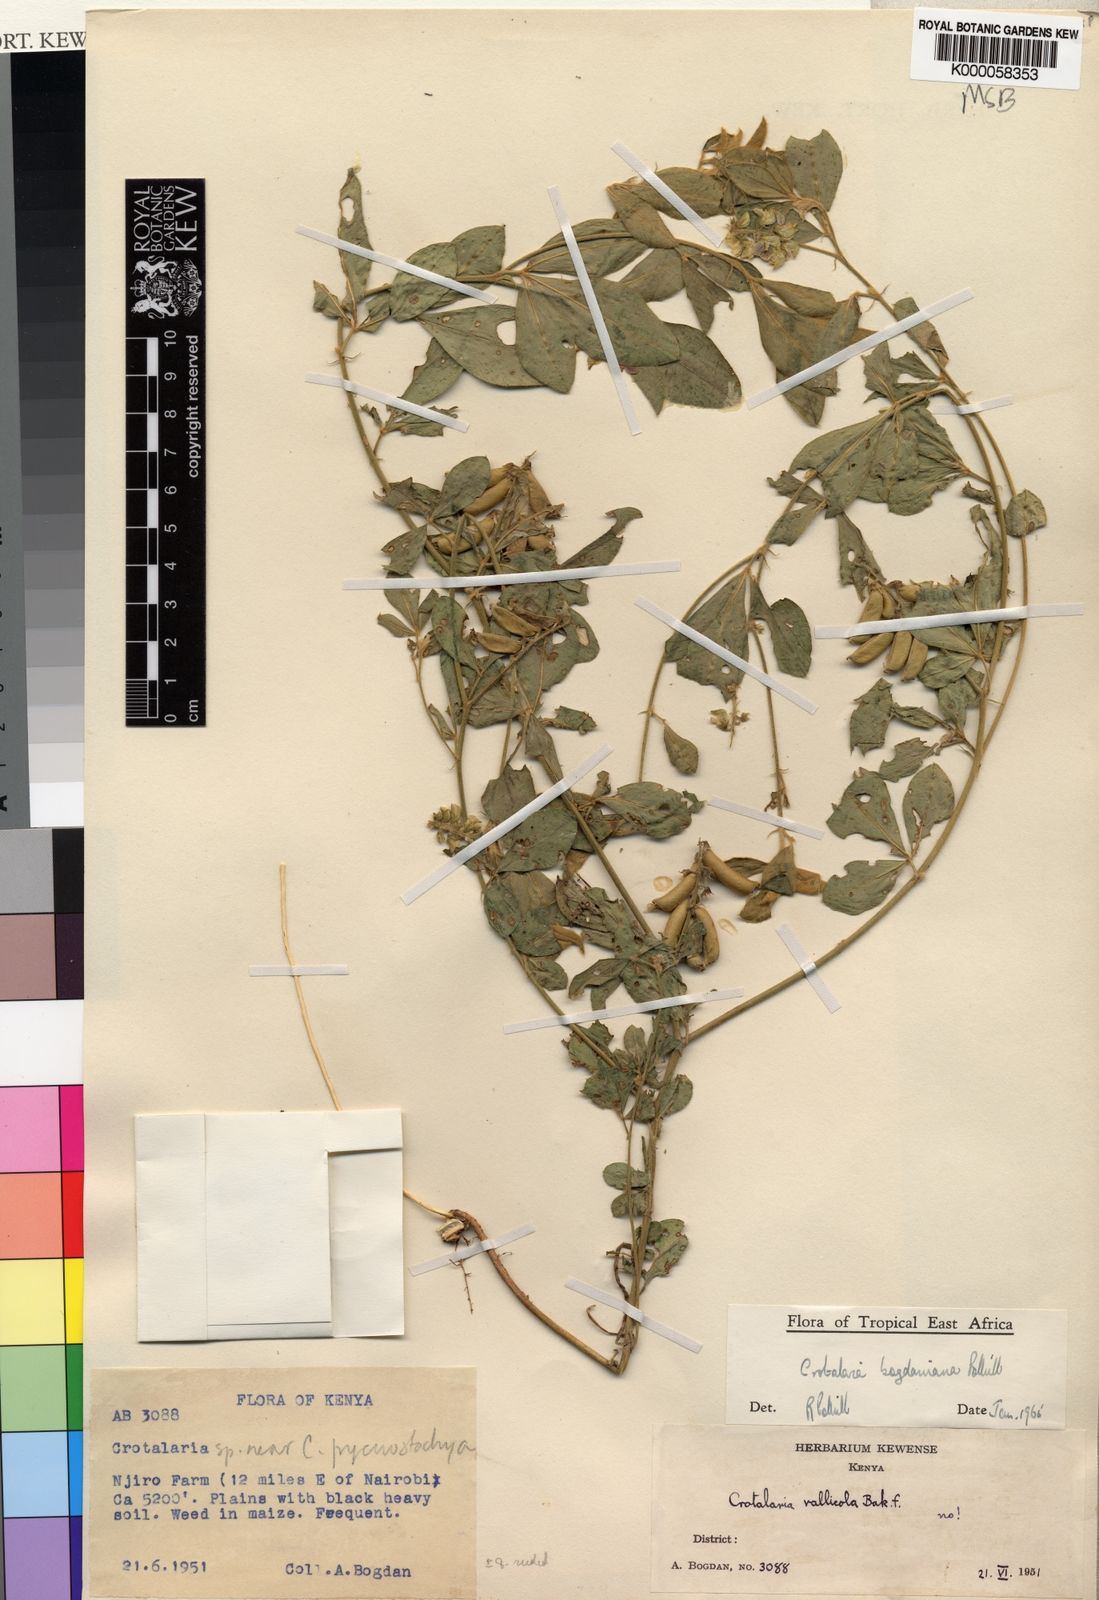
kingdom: Plantae
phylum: Tracheophyta
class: Magnoliopsida
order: Fabales
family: Fabaceae
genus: Crotalaria
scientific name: Crotalaria bogdaniana
